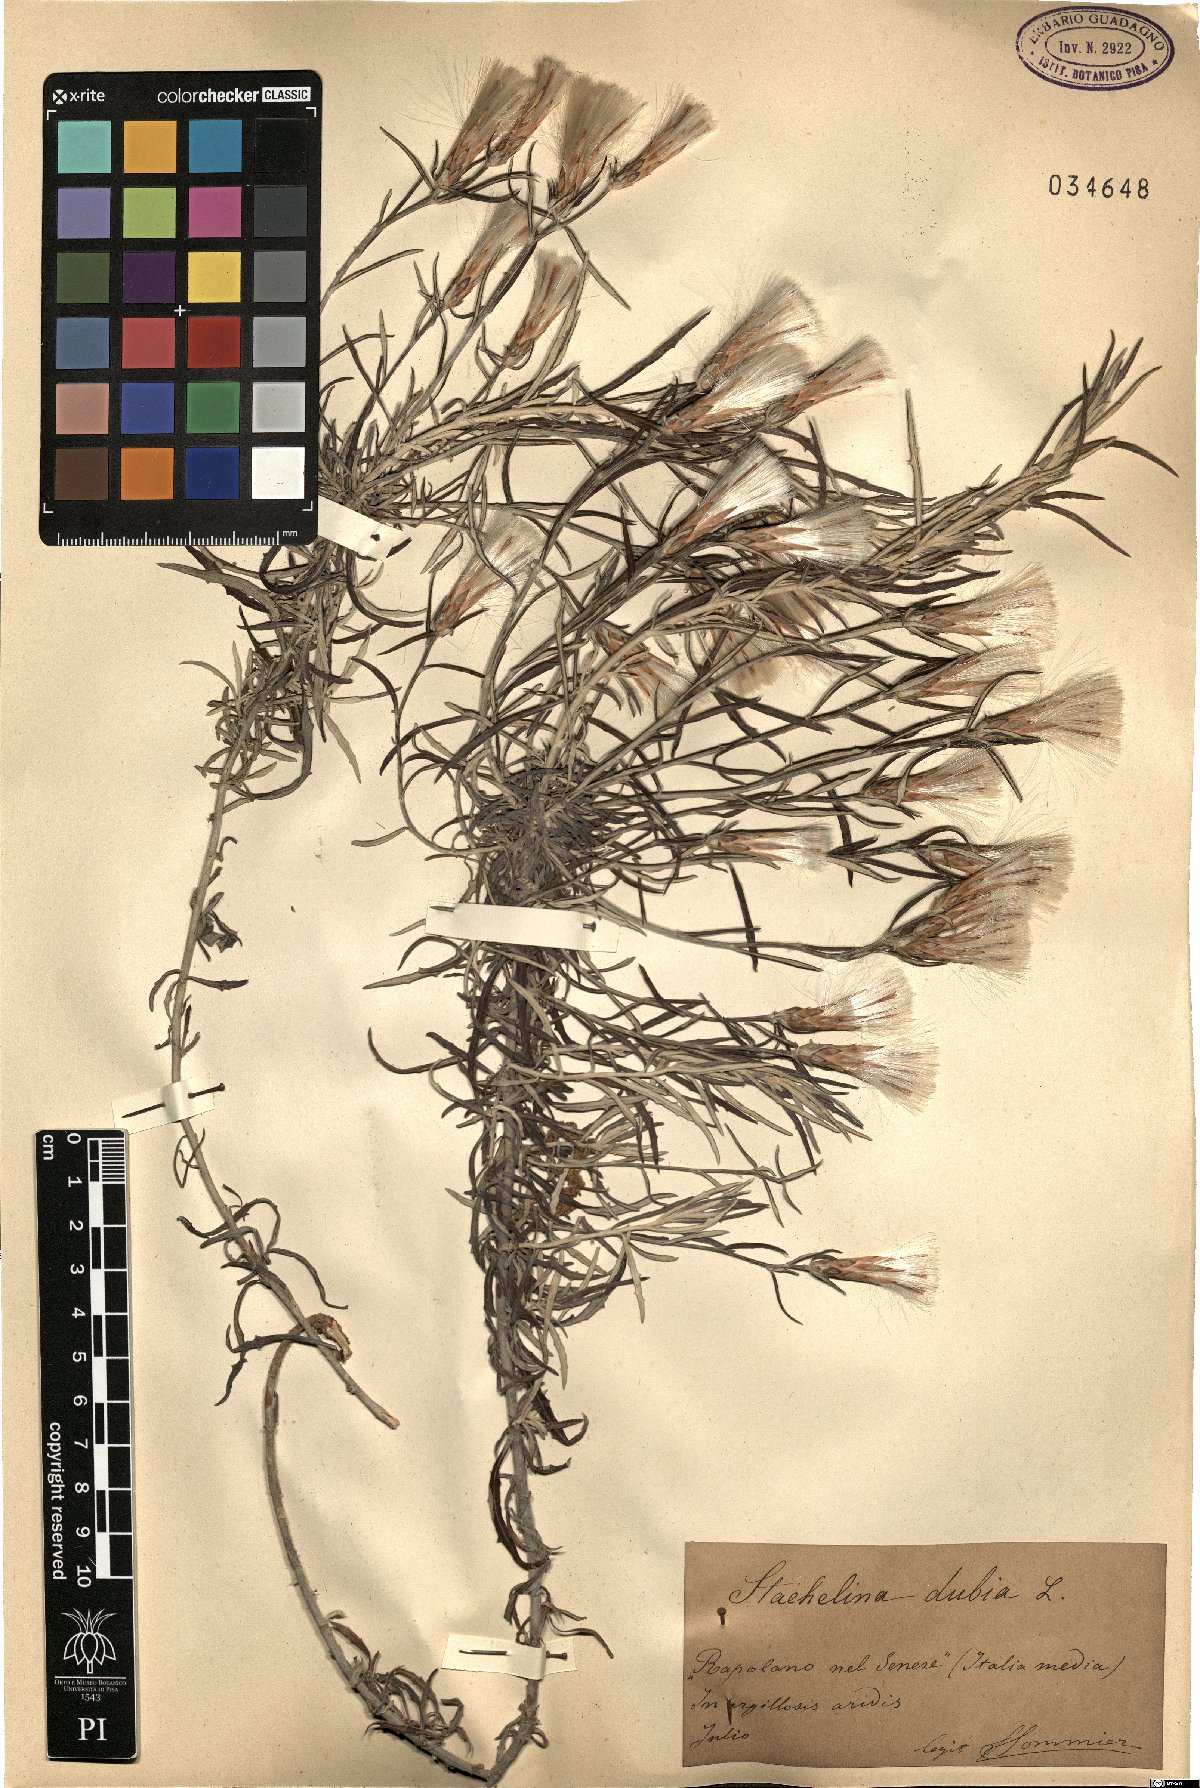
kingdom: Plantae
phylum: Tracheophyta
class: Magnoliopsida
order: Asterales
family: Asteraceae
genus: Staehelina
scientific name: Staehelina dubia
